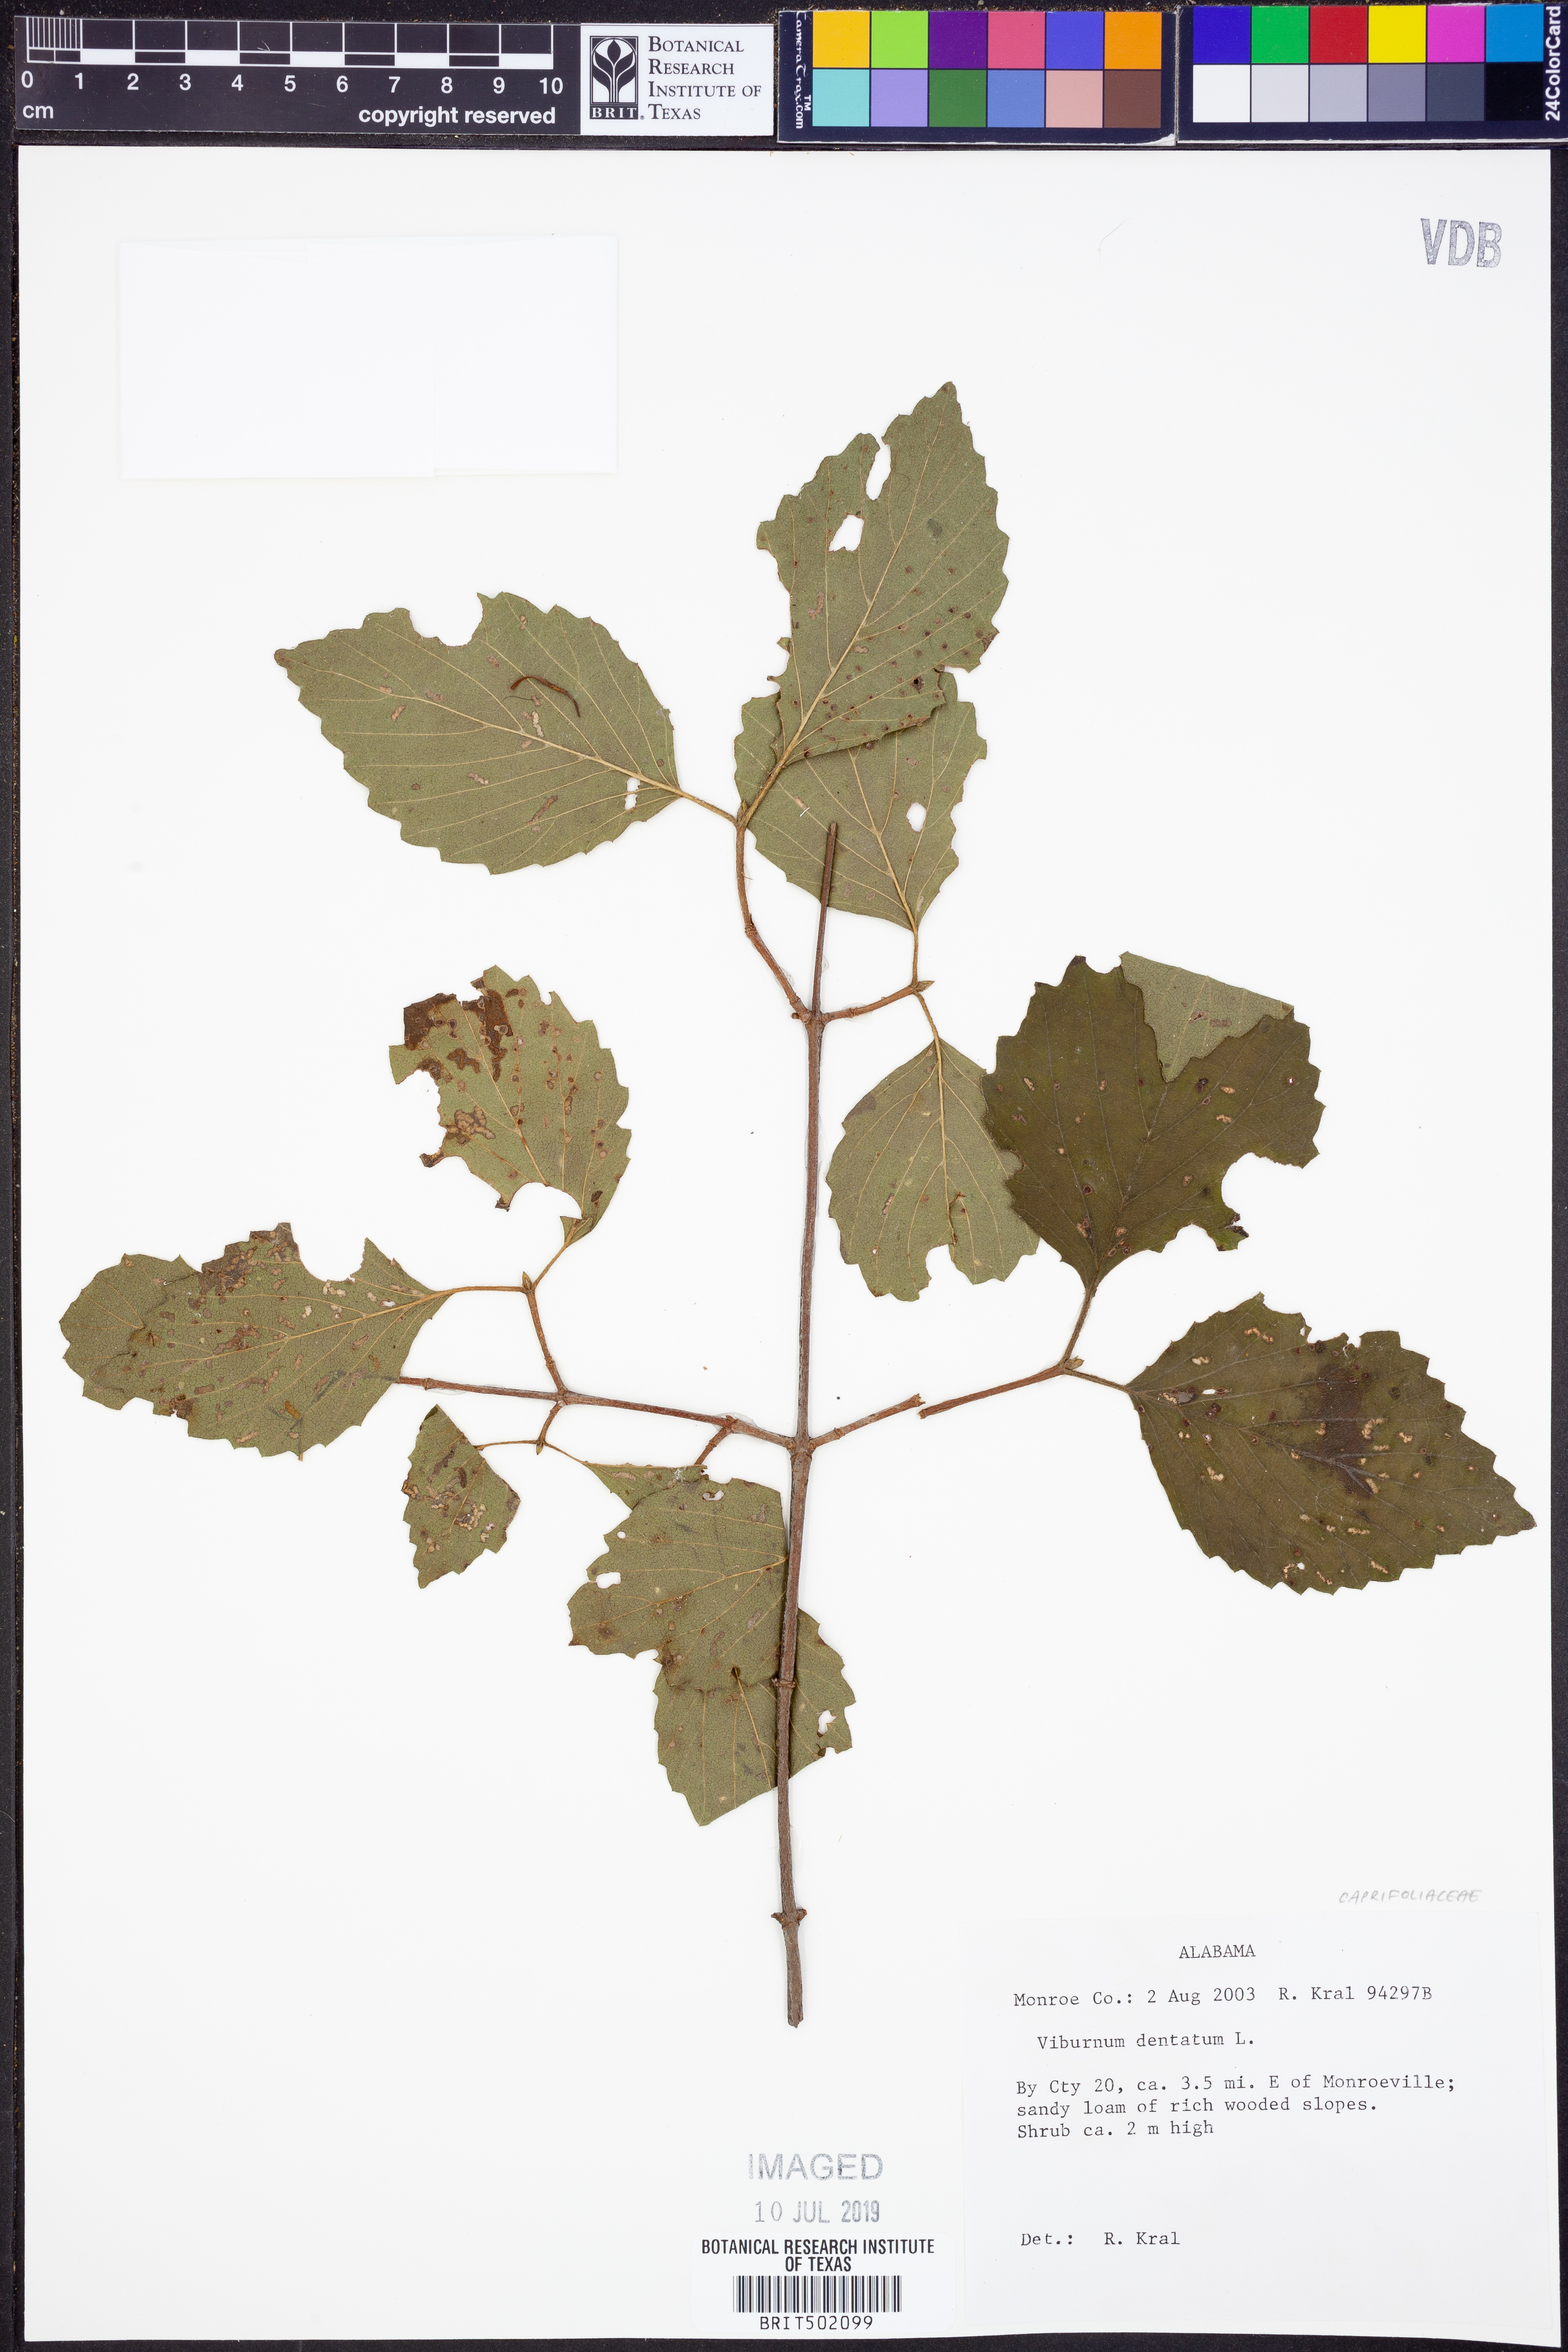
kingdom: Plantae
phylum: Tracheophyta
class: Magnoliopsida
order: Dipsacales
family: Viburnaceae
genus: Viburnum
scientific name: Viburnum dentatum
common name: Arrow-wood
